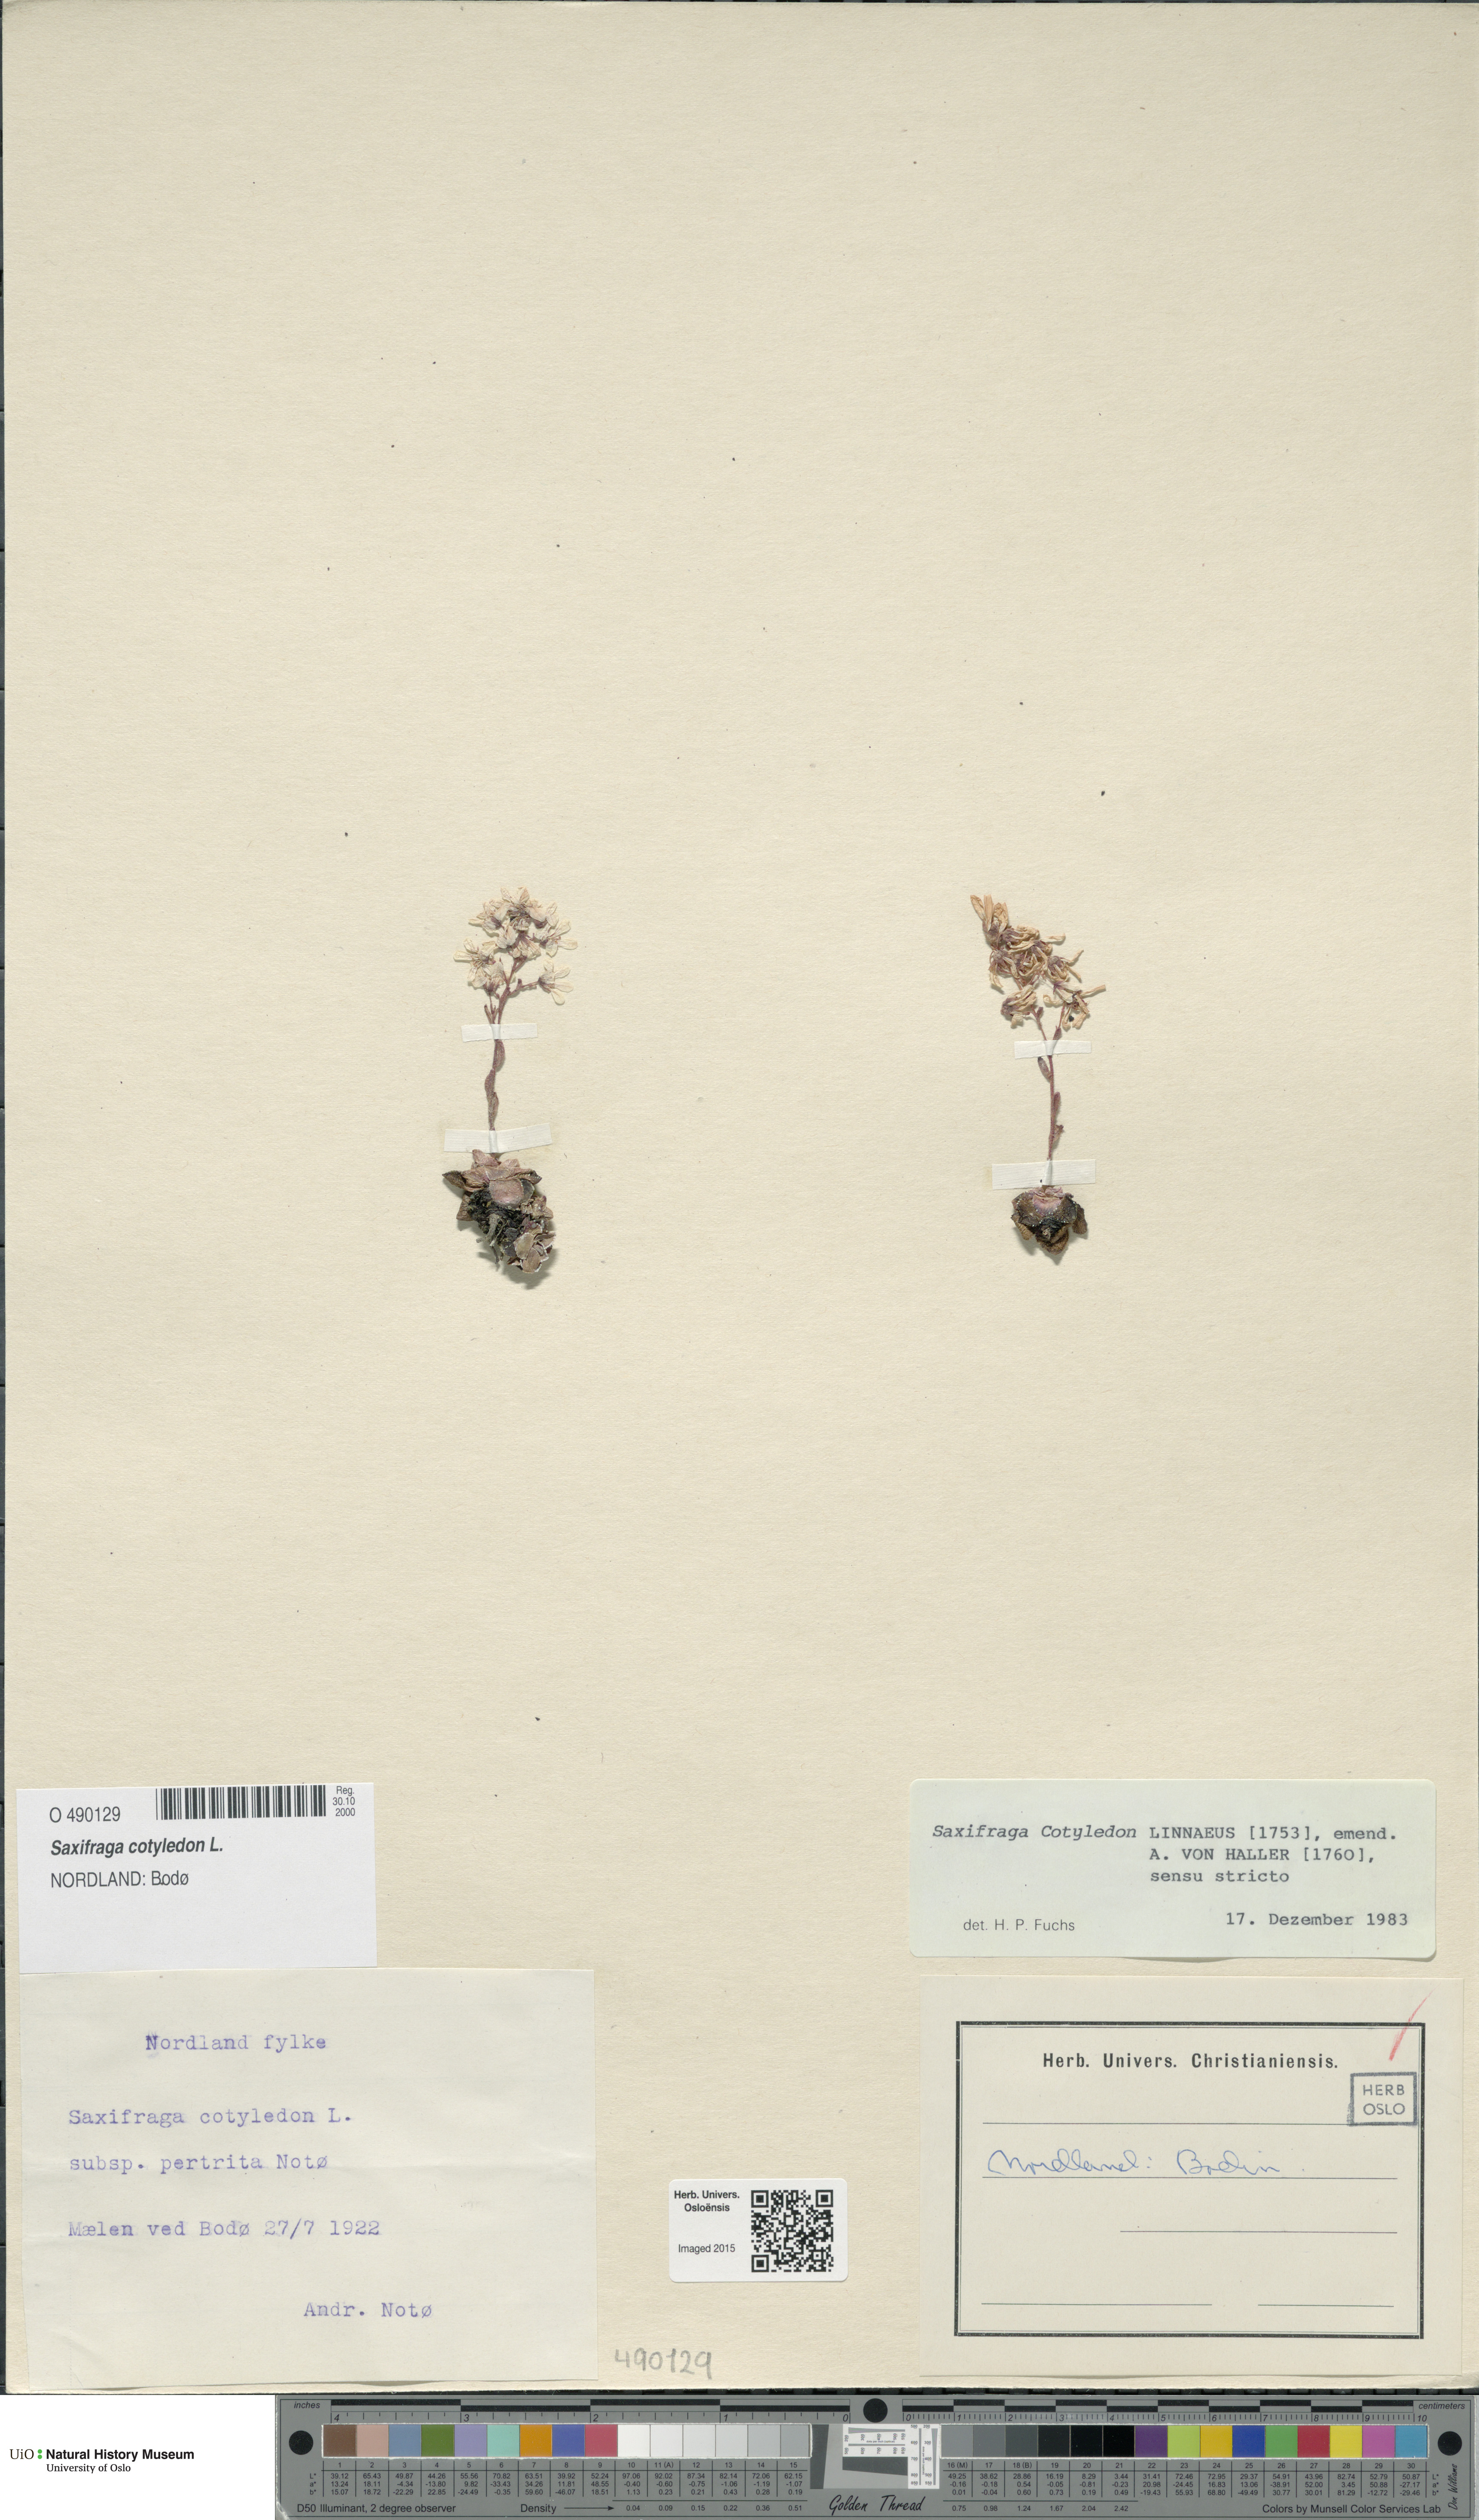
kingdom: Plantae
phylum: Tracheophyta
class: Magnoliopsida
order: Saxifragales
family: Saxifragaceae
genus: Saxifraga
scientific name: Saxifraga cotyledon
